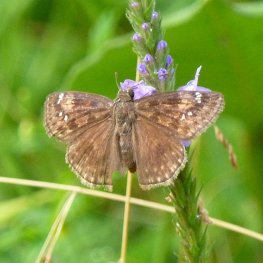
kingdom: Animalia
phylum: Arthropoda
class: Insecta
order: Lepidoptera
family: Hesperiidae
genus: Gesta
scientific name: Gesta
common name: Wild Indigo Duskywing
